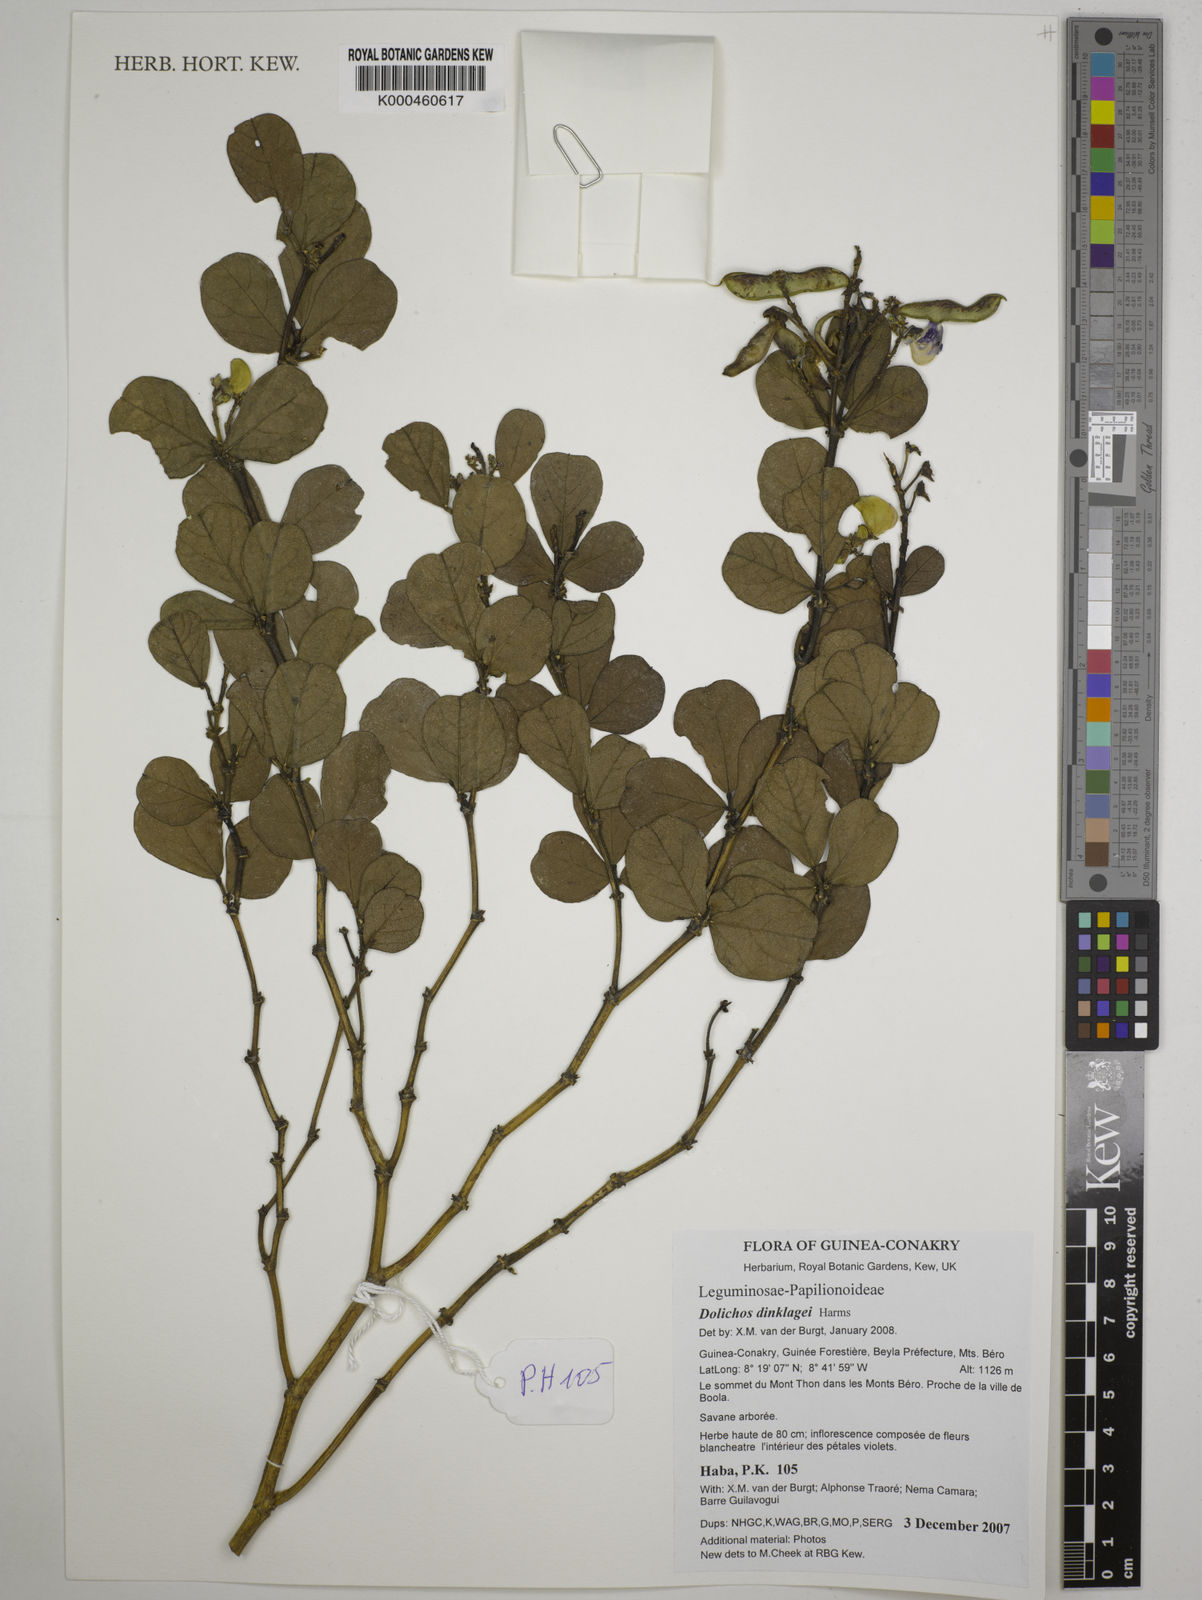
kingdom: Plantae
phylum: Tracheophyta
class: Magnoliopsida
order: Fabales
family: Fabaceae
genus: Dolichos
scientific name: Dolichos dinklagei
